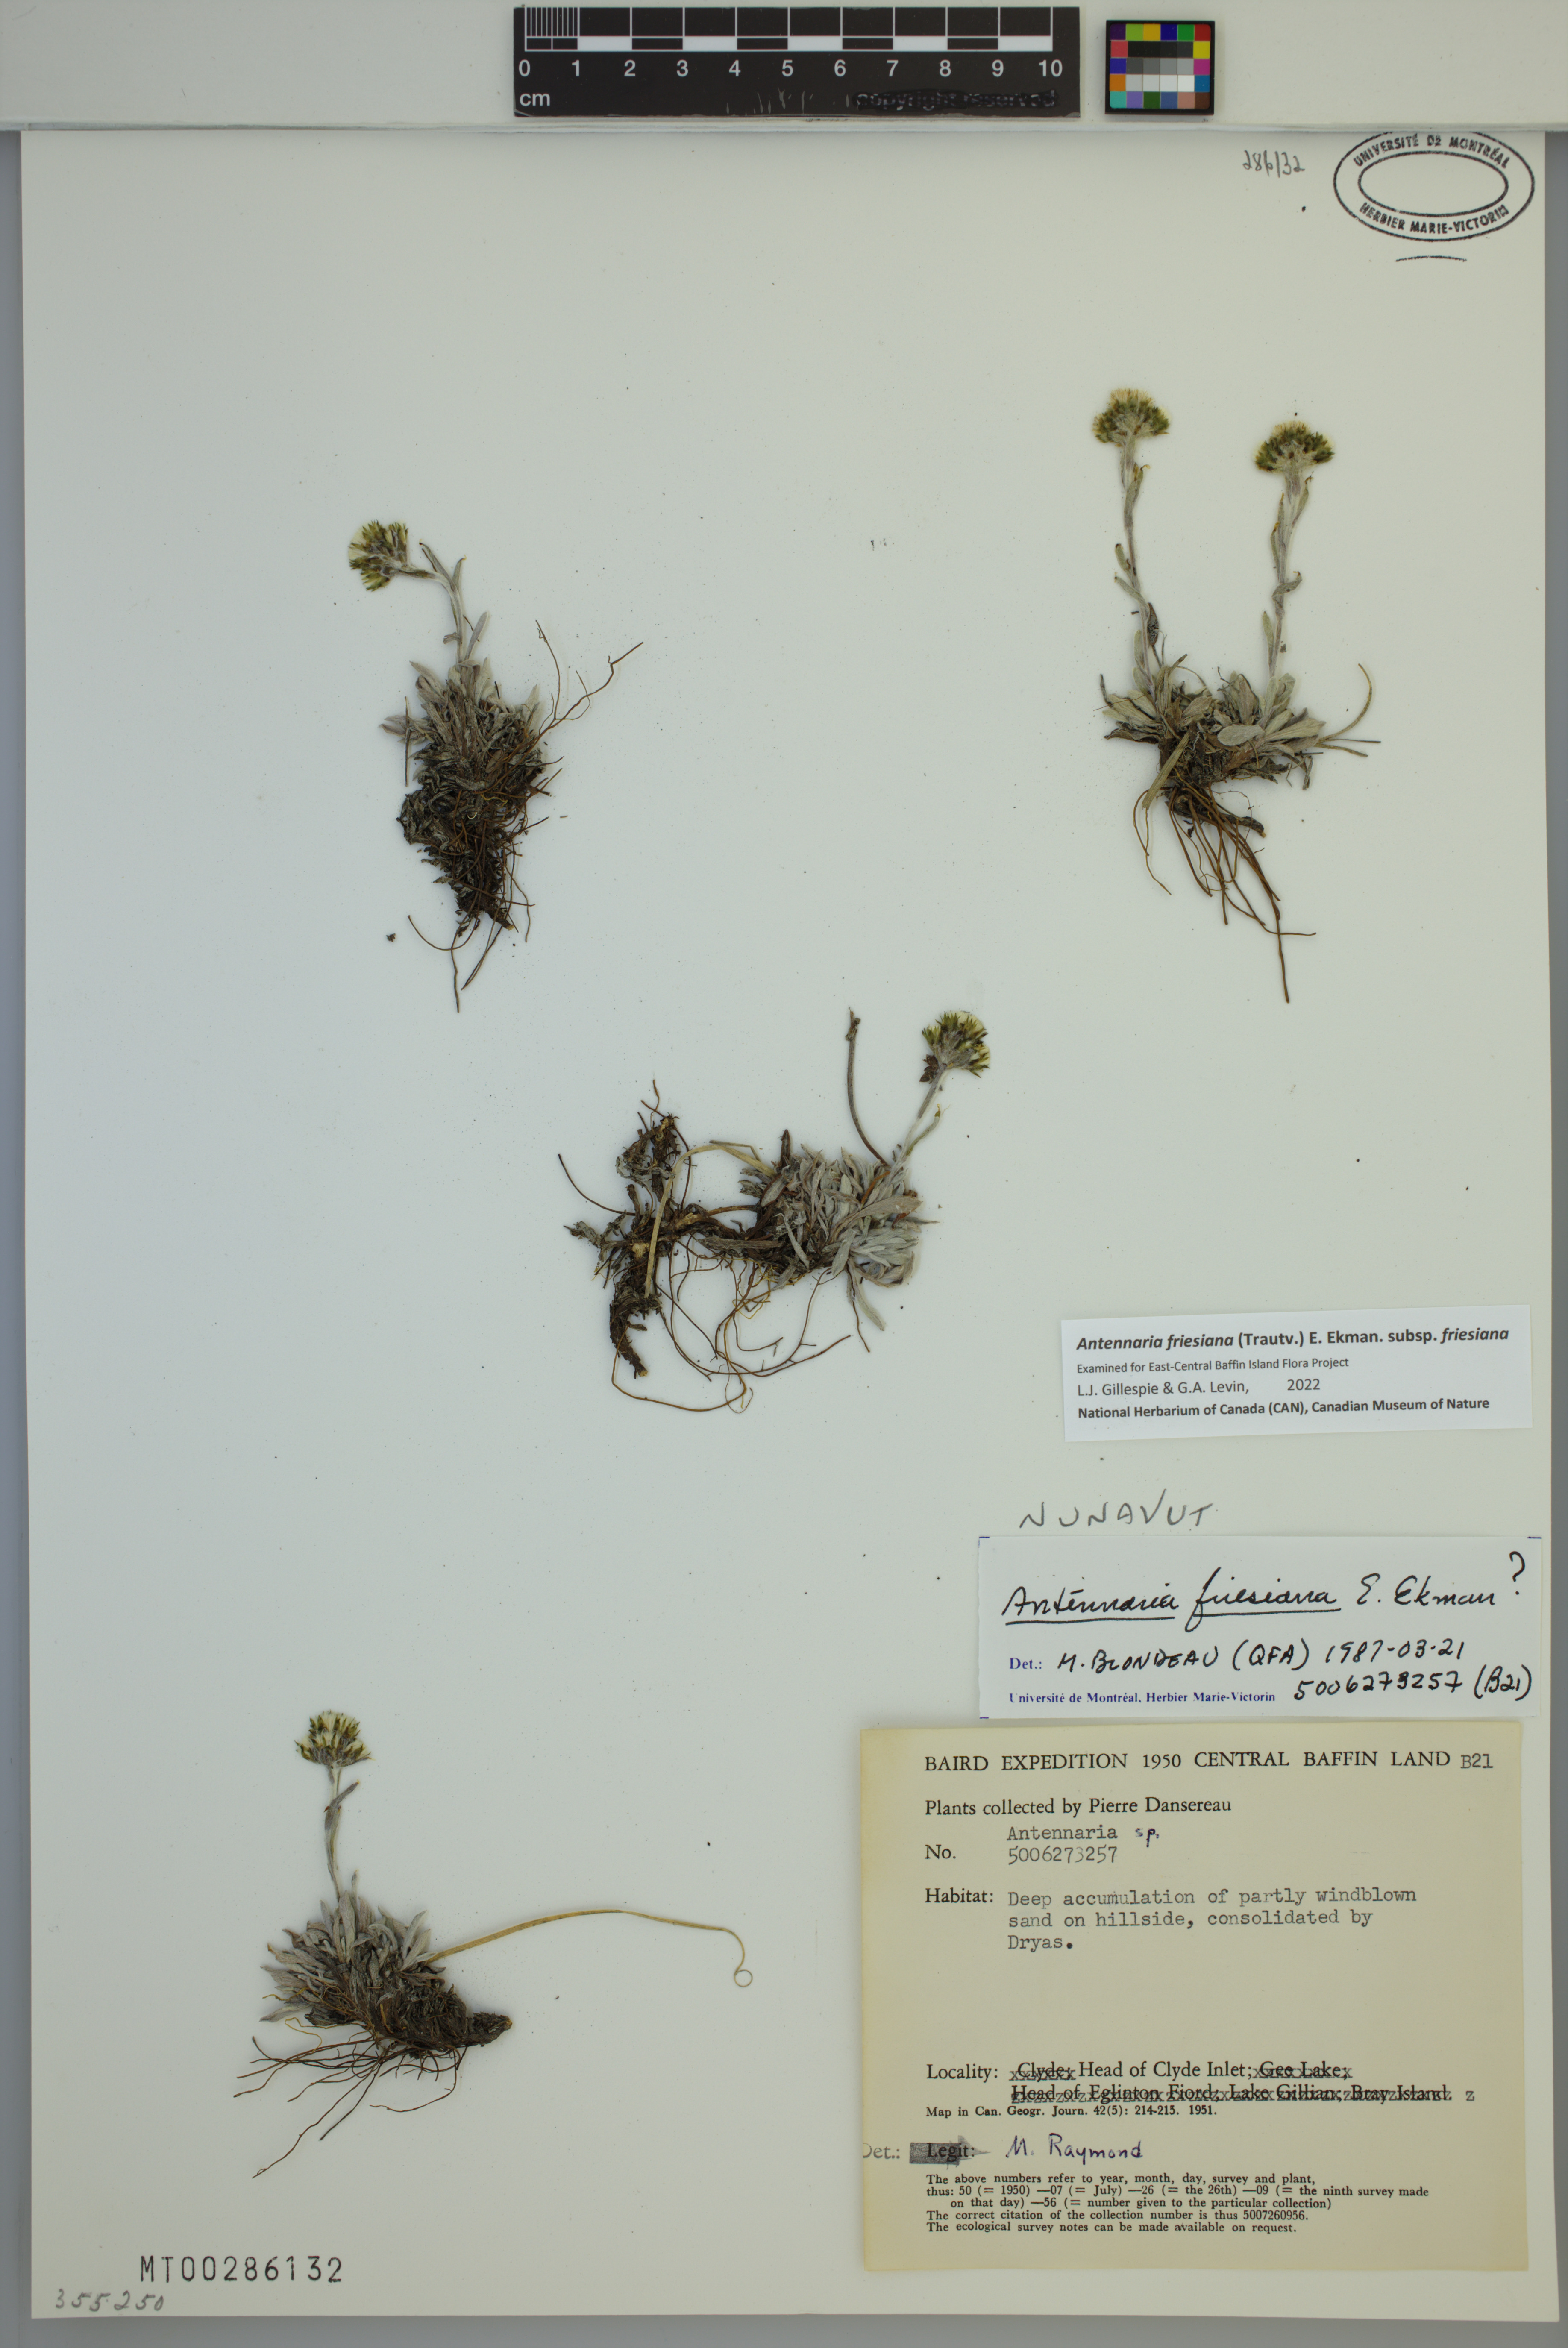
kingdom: Plantae
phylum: Tracheophyta
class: Magnoliopsida
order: Asterales
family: Asteraceae
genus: Antennaria
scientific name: Antennaria friesiana
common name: Fries' pussytoes
